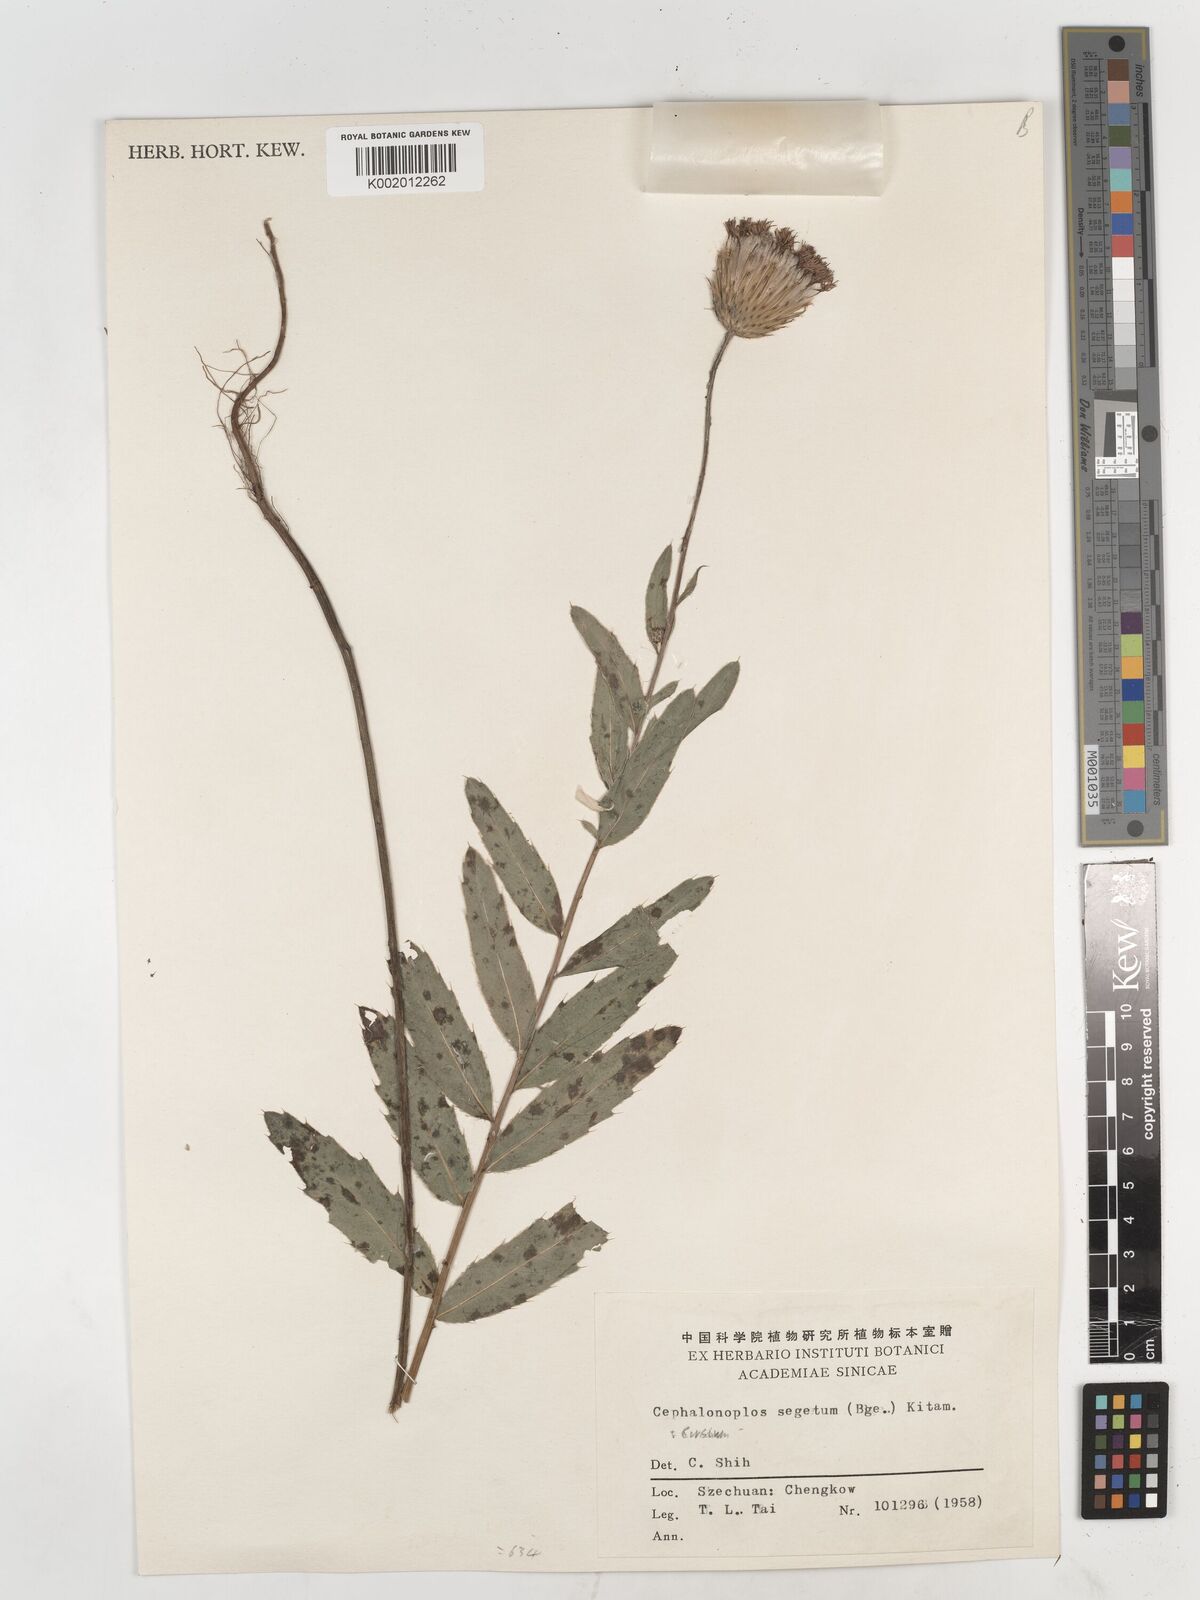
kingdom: Plantae
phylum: Tracheophyta
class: Magnoliopsida
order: Asterales
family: Asteraceae
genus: Cirsium
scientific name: Cirsium arvense
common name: Creeping thistle
